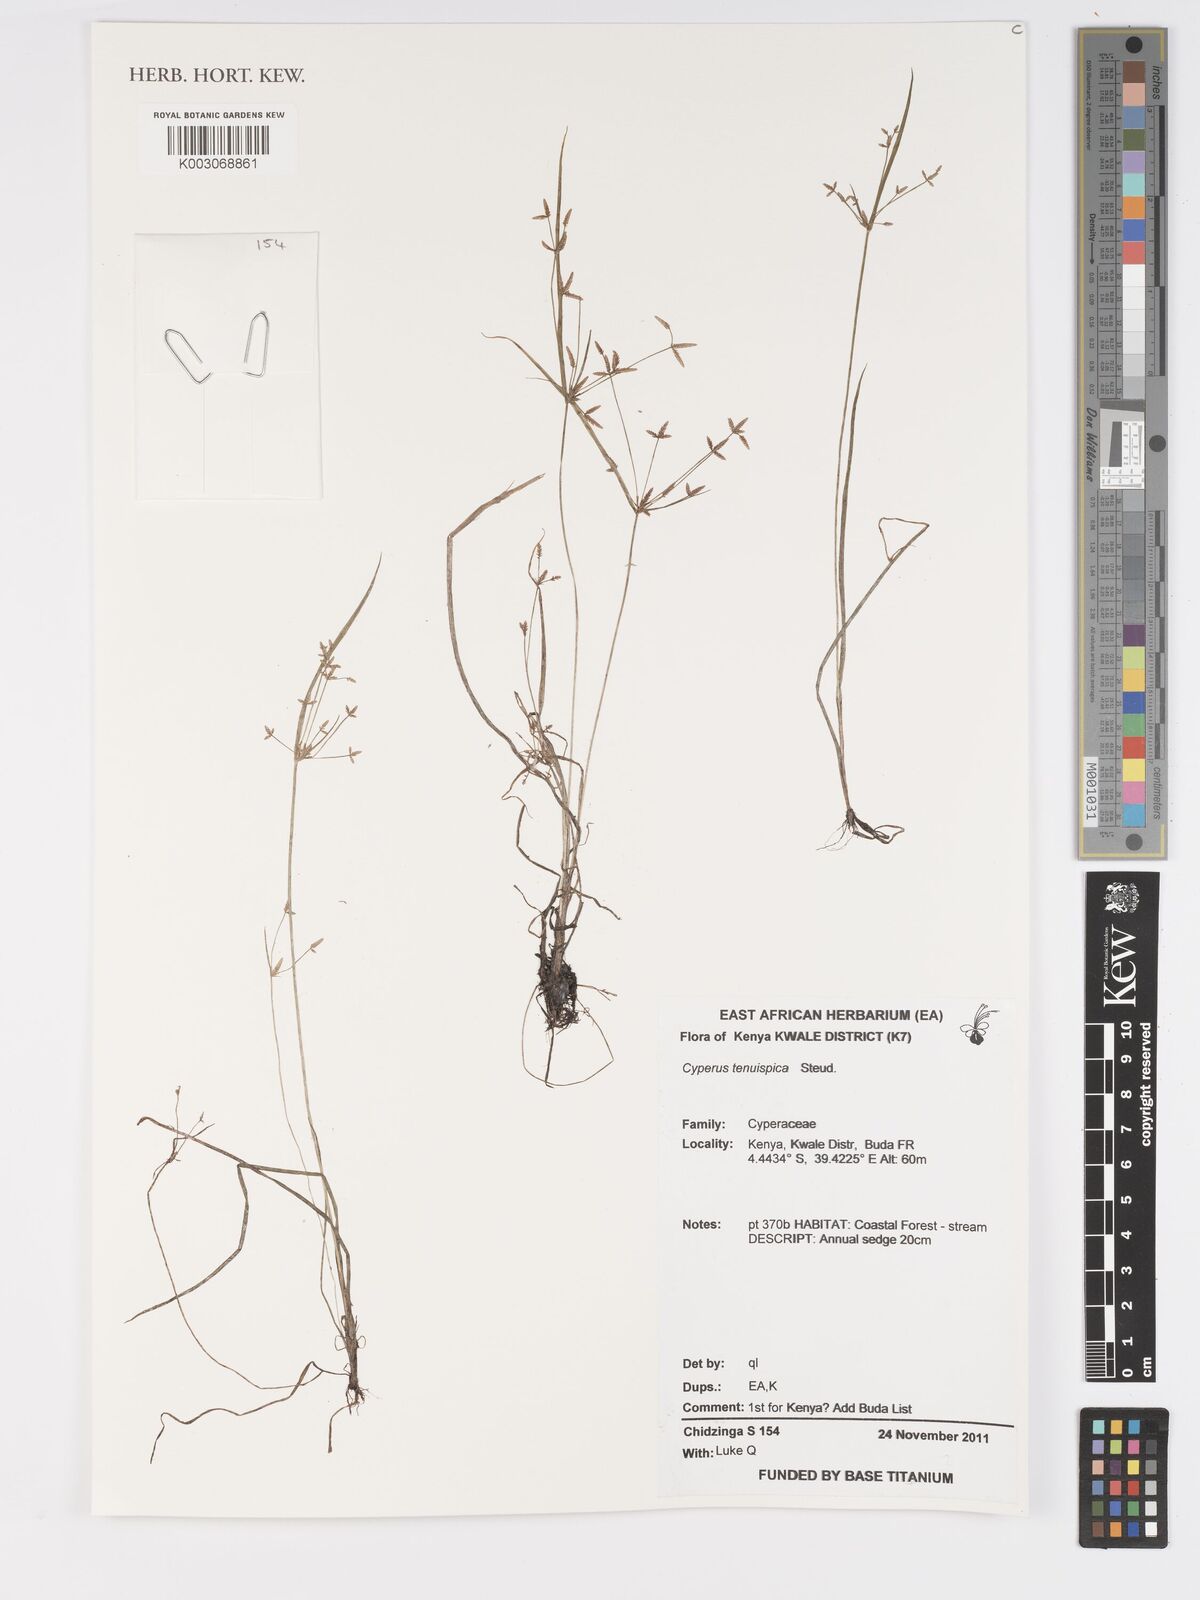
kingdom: Plantae
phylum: Tracheophyta
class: Liliopsida
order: Poales
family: Cyperaceae
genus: Cyperus
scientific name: Cyperus tenuispica
